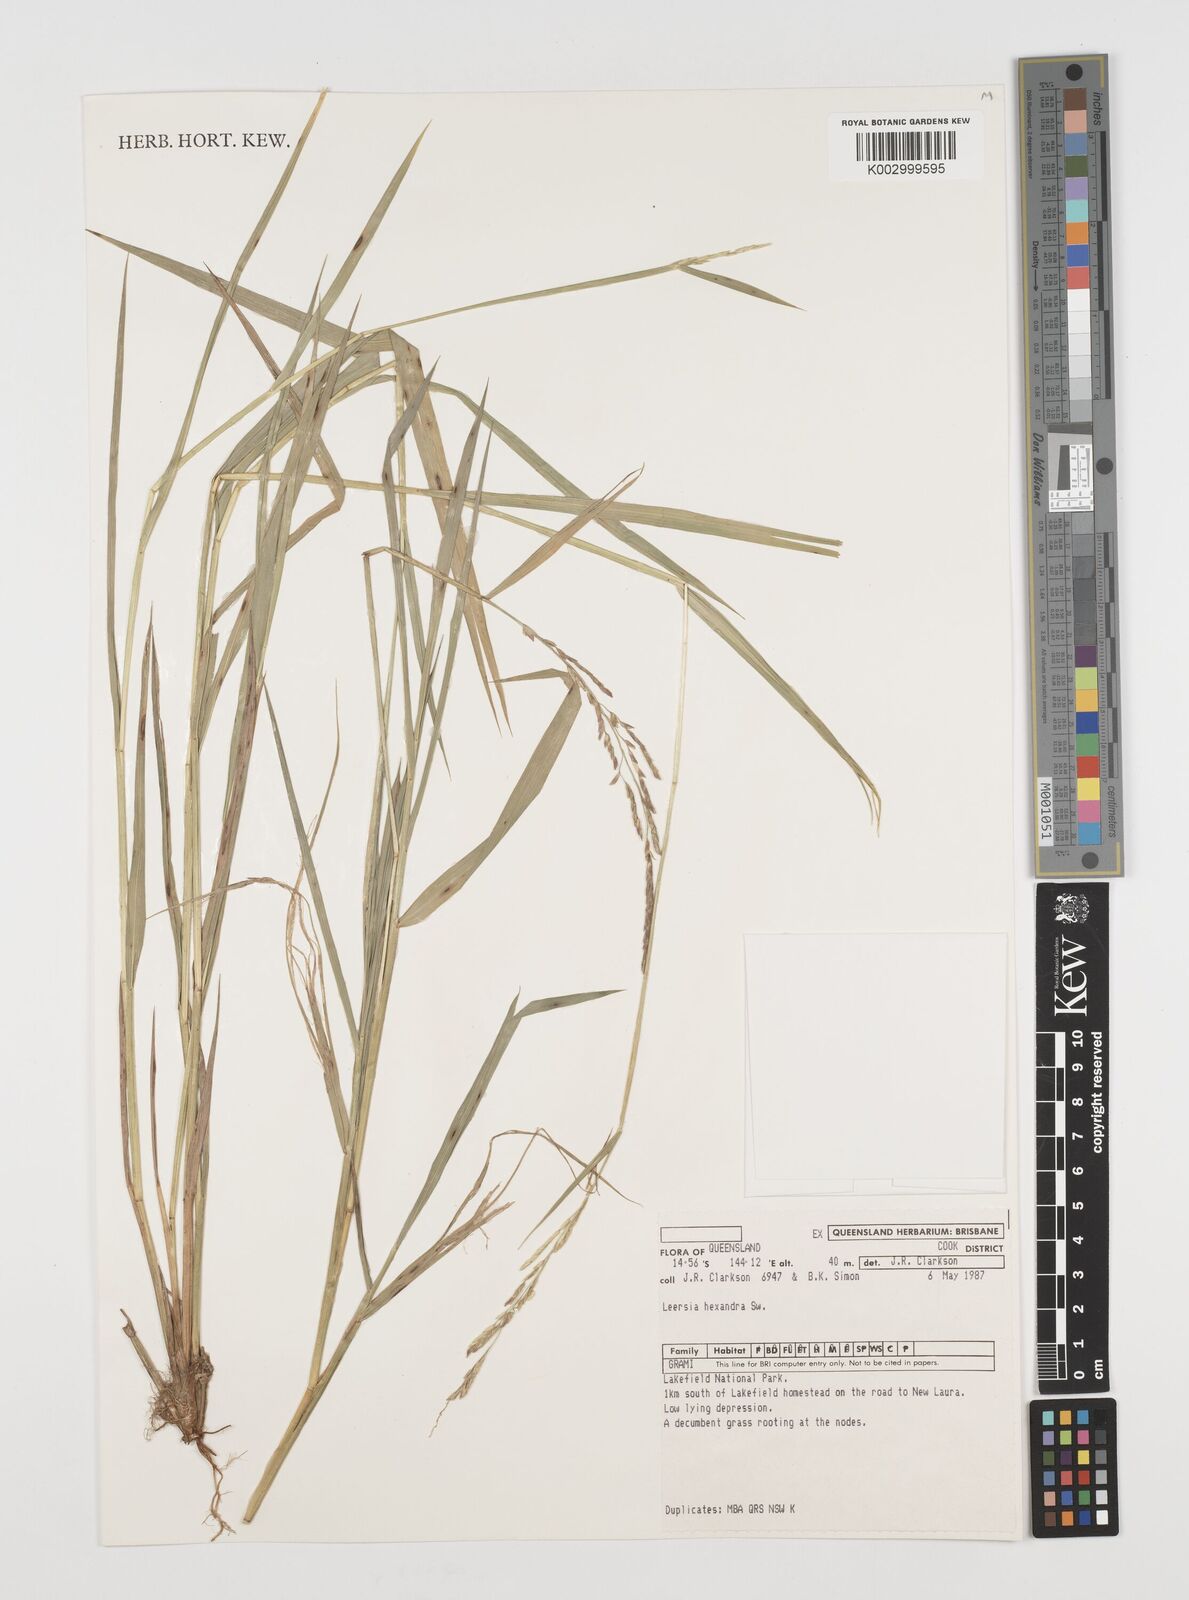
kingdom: Plantae
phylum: Tracheophyta
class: Liliopsida
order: Poales
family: Poaceae
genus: Leersia
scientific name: Leersia hexandra
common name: Southern cut grass
